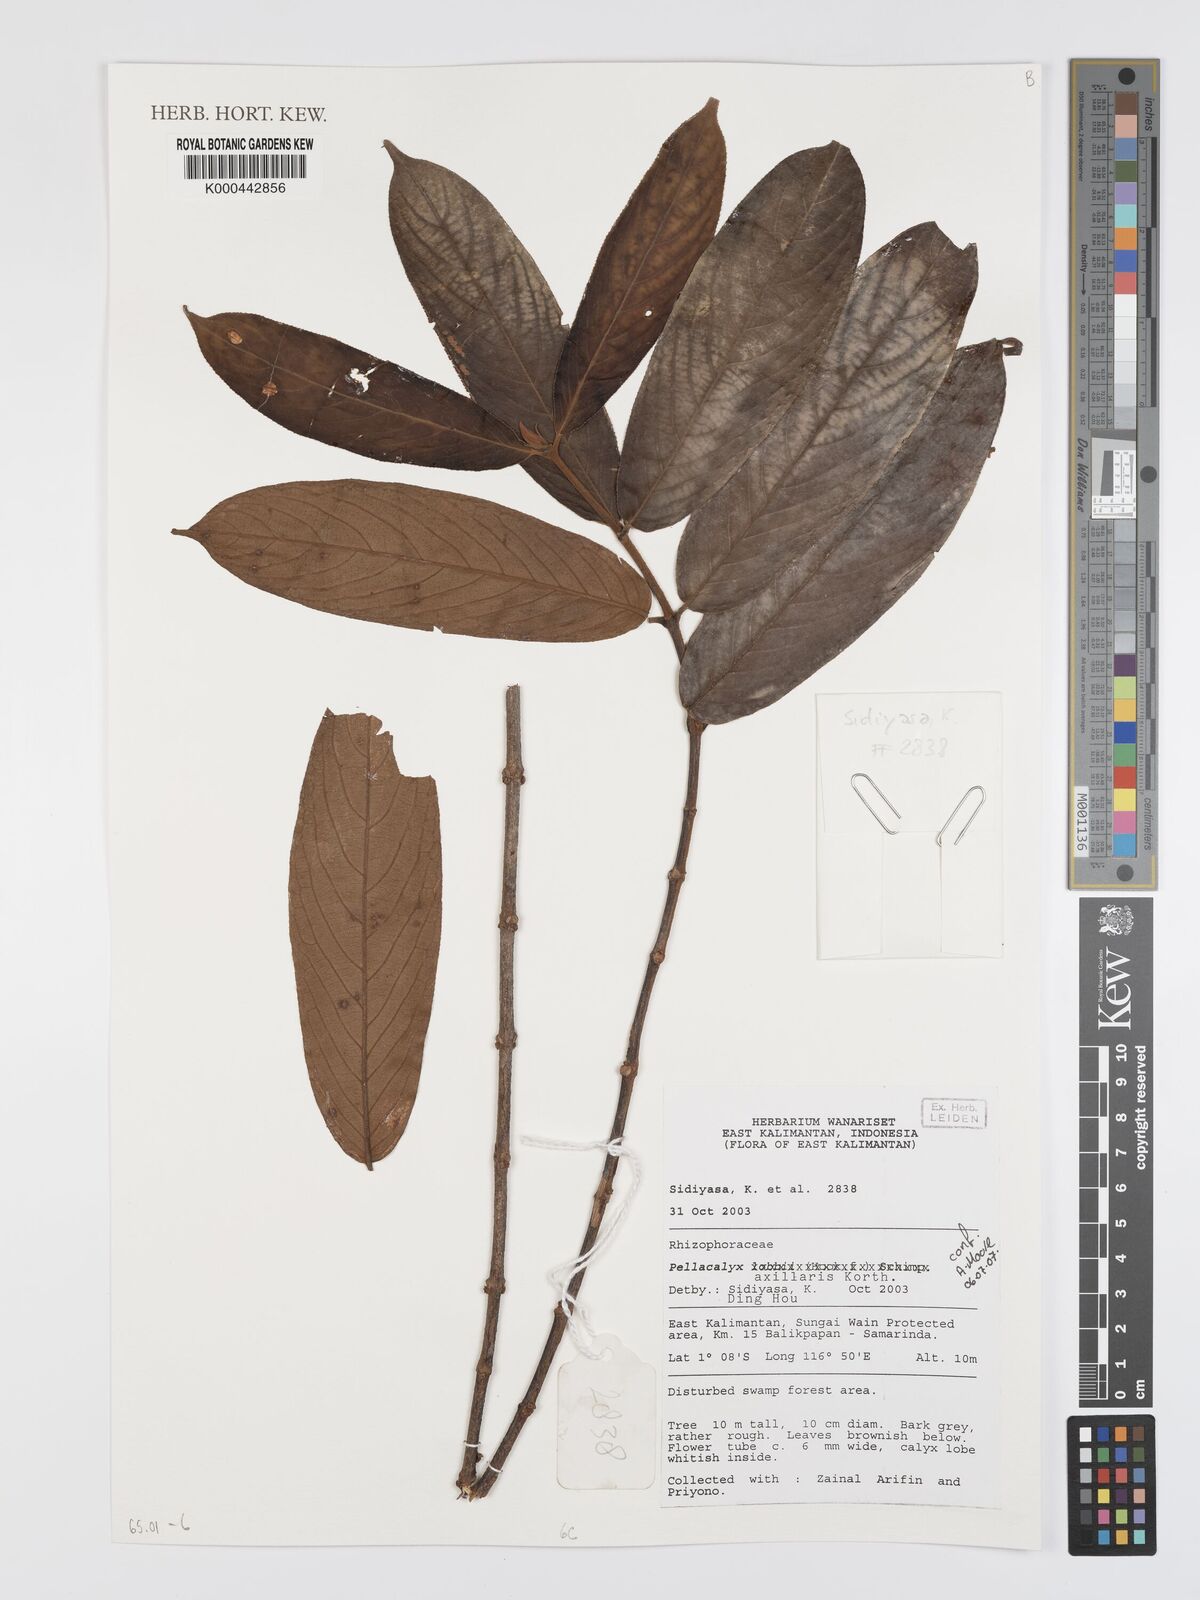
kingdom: Plantae
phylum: Tracheophyta
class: Magnoliopsida
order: Malpighiales
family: Rhizophoraceae
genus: Pellacalyx
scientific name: Pellacalyx axillaris
